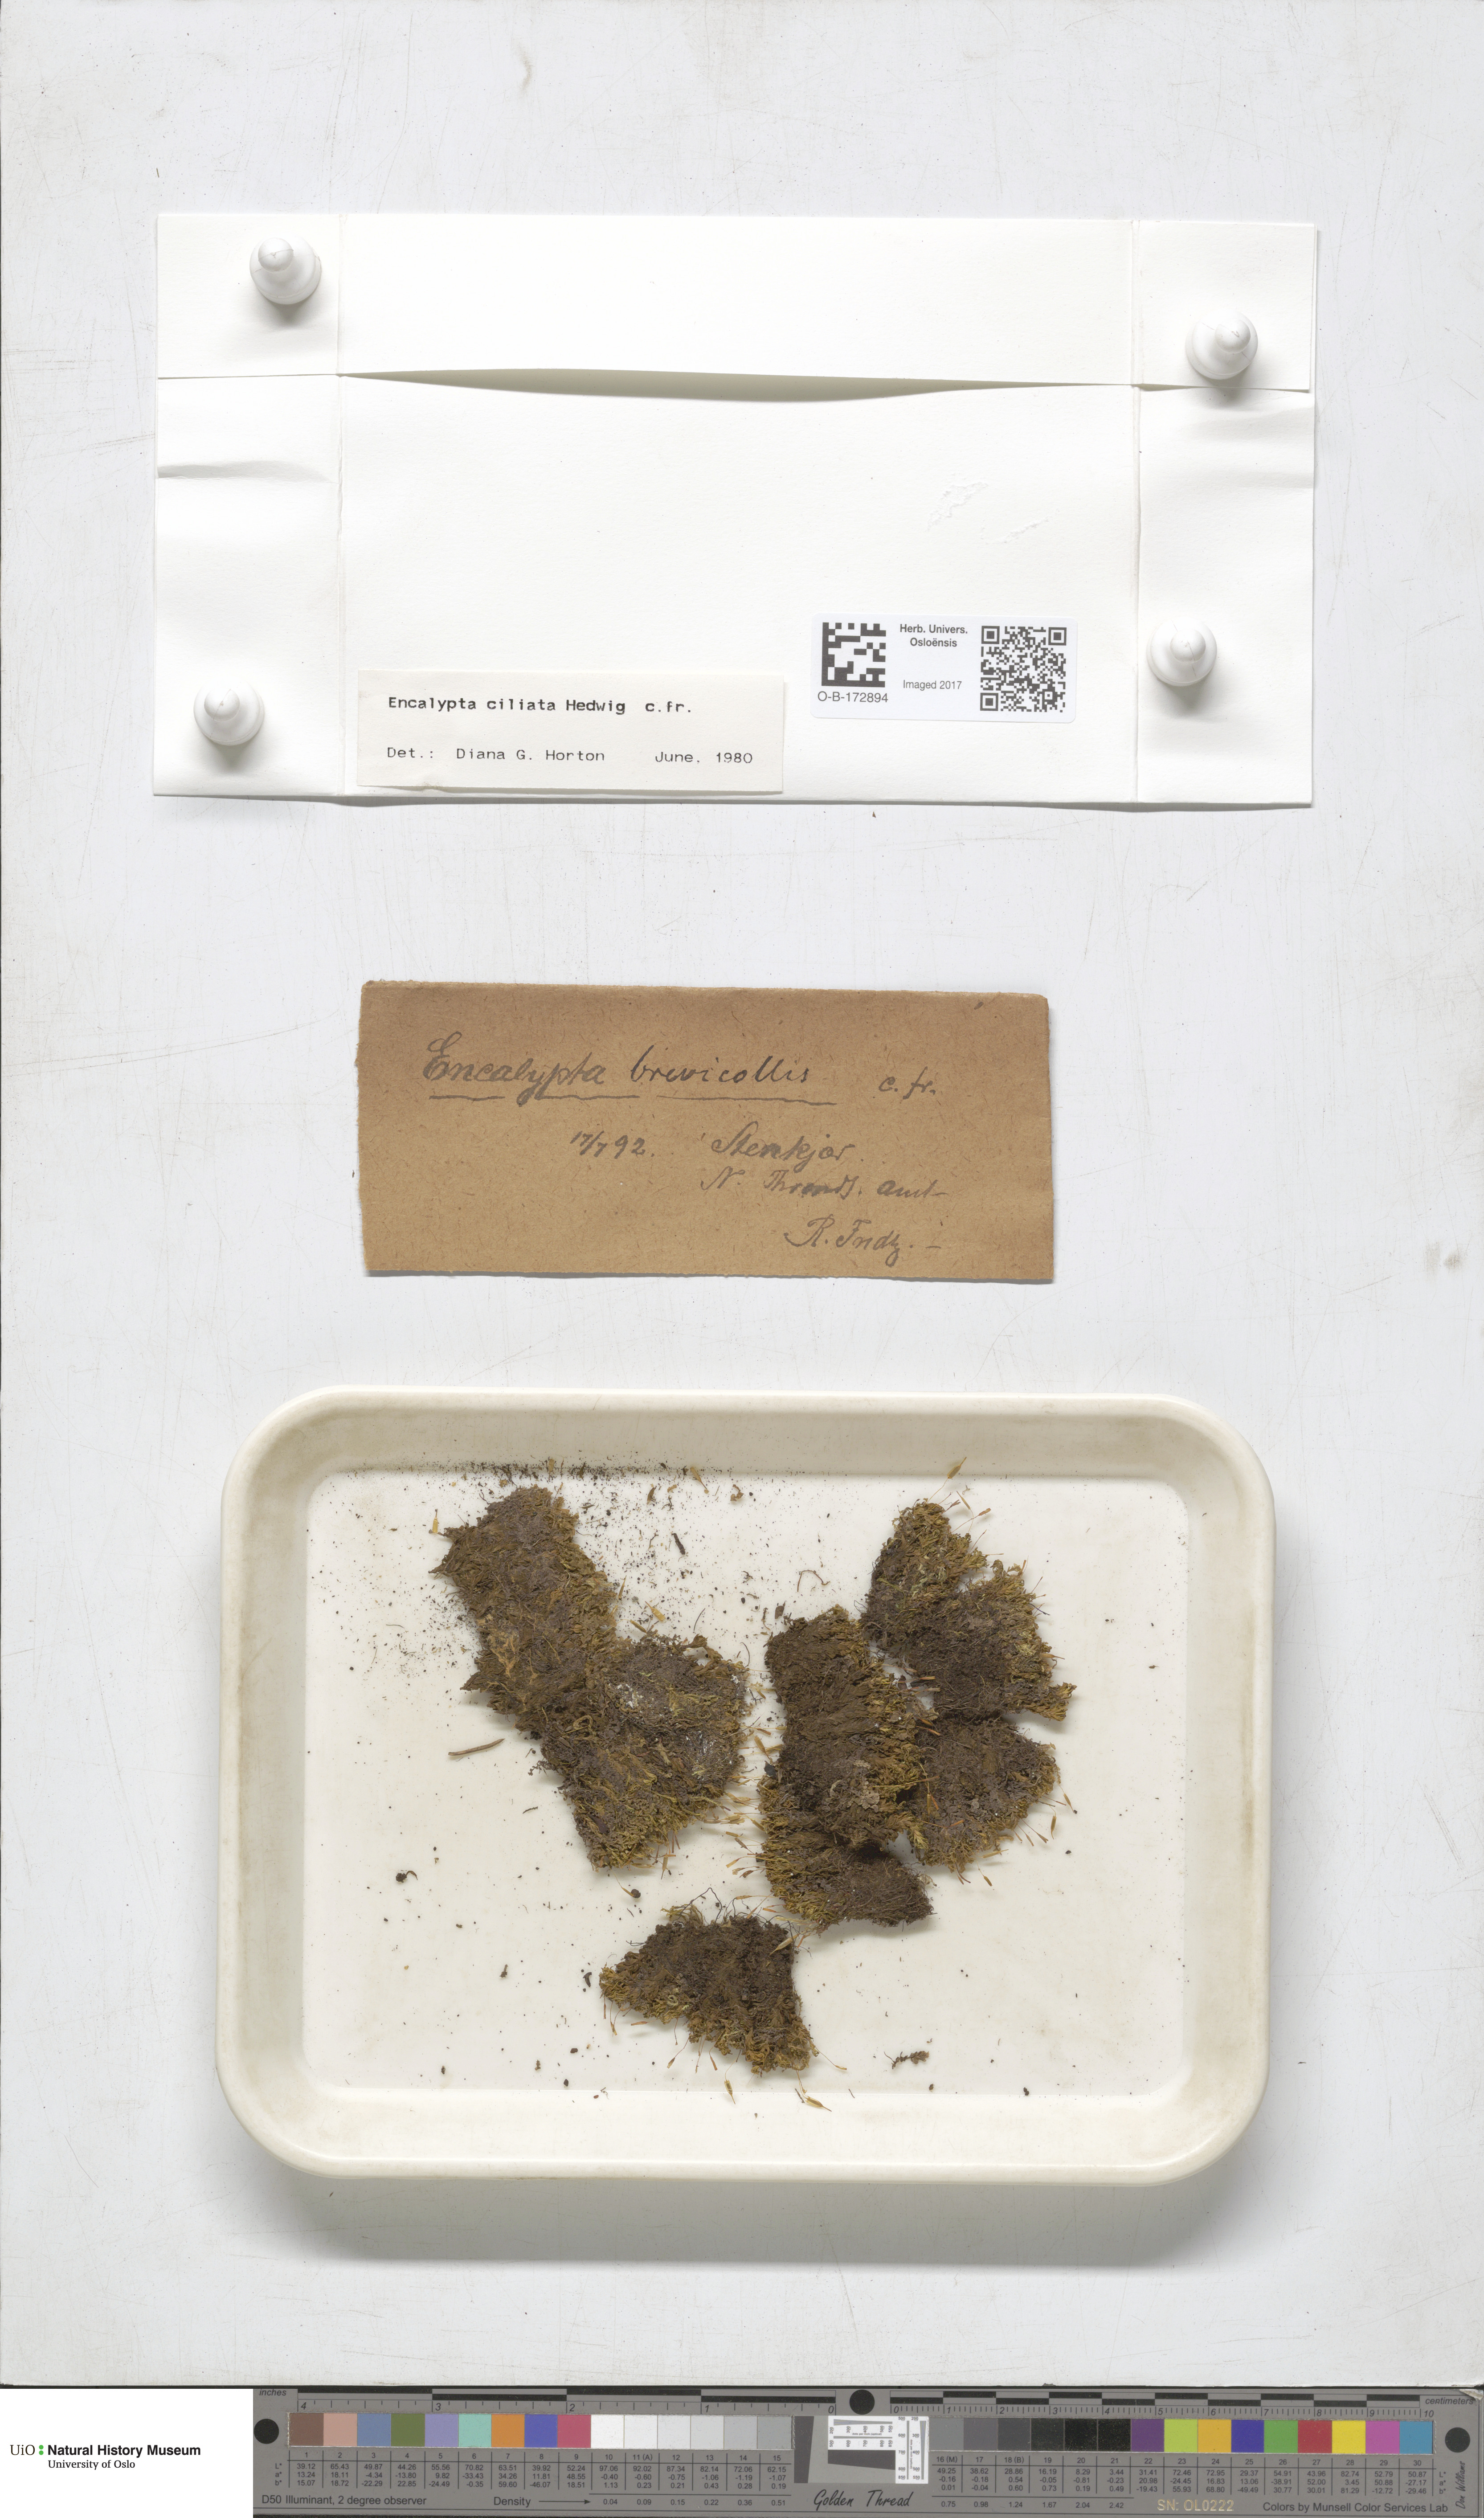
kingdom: Plantae
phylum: Bryophyta
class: Bryopsida
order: Encalyptales
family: Encalyptaceae
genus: Encalypta
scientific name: Encalypta ciliata
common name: Fringed extinguisher-moss
